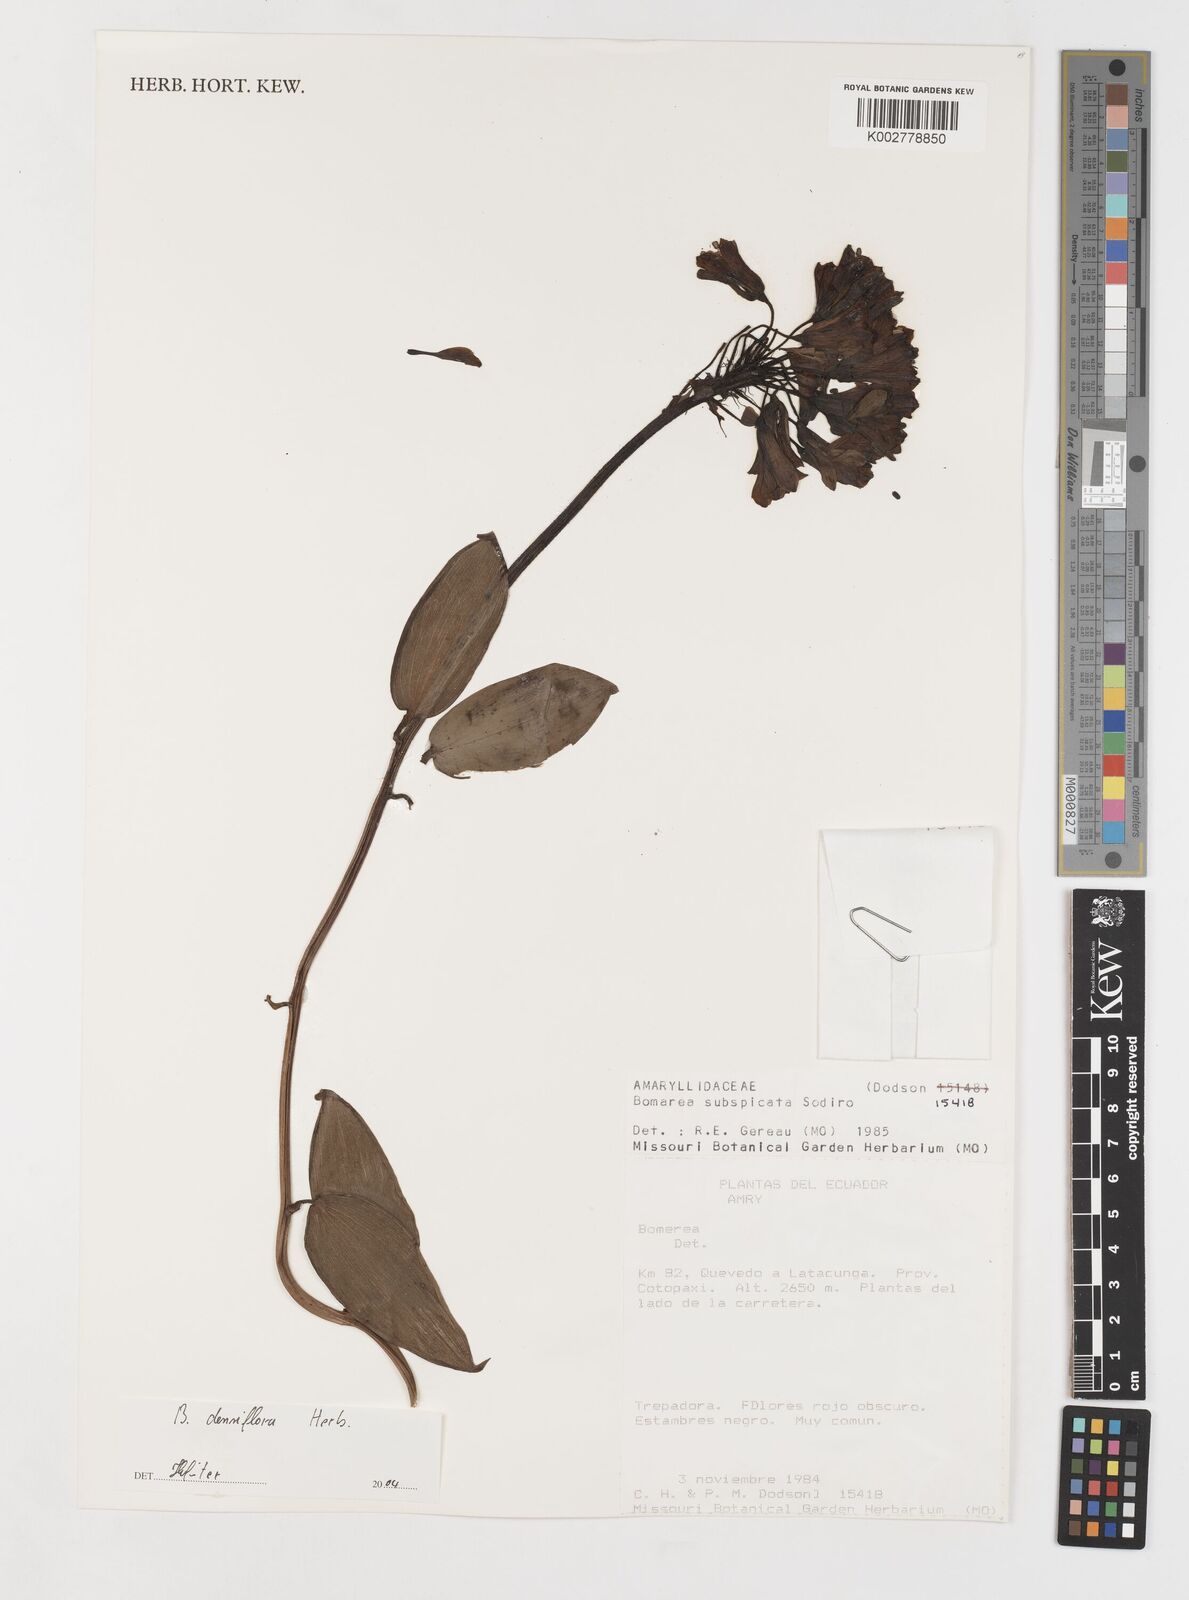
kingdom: Plantae
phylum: Tracheophyta
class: Liliopsida
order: Liliales
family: Alstroemeriaceae
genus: Bomarea
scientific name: Bomarea densiflora
